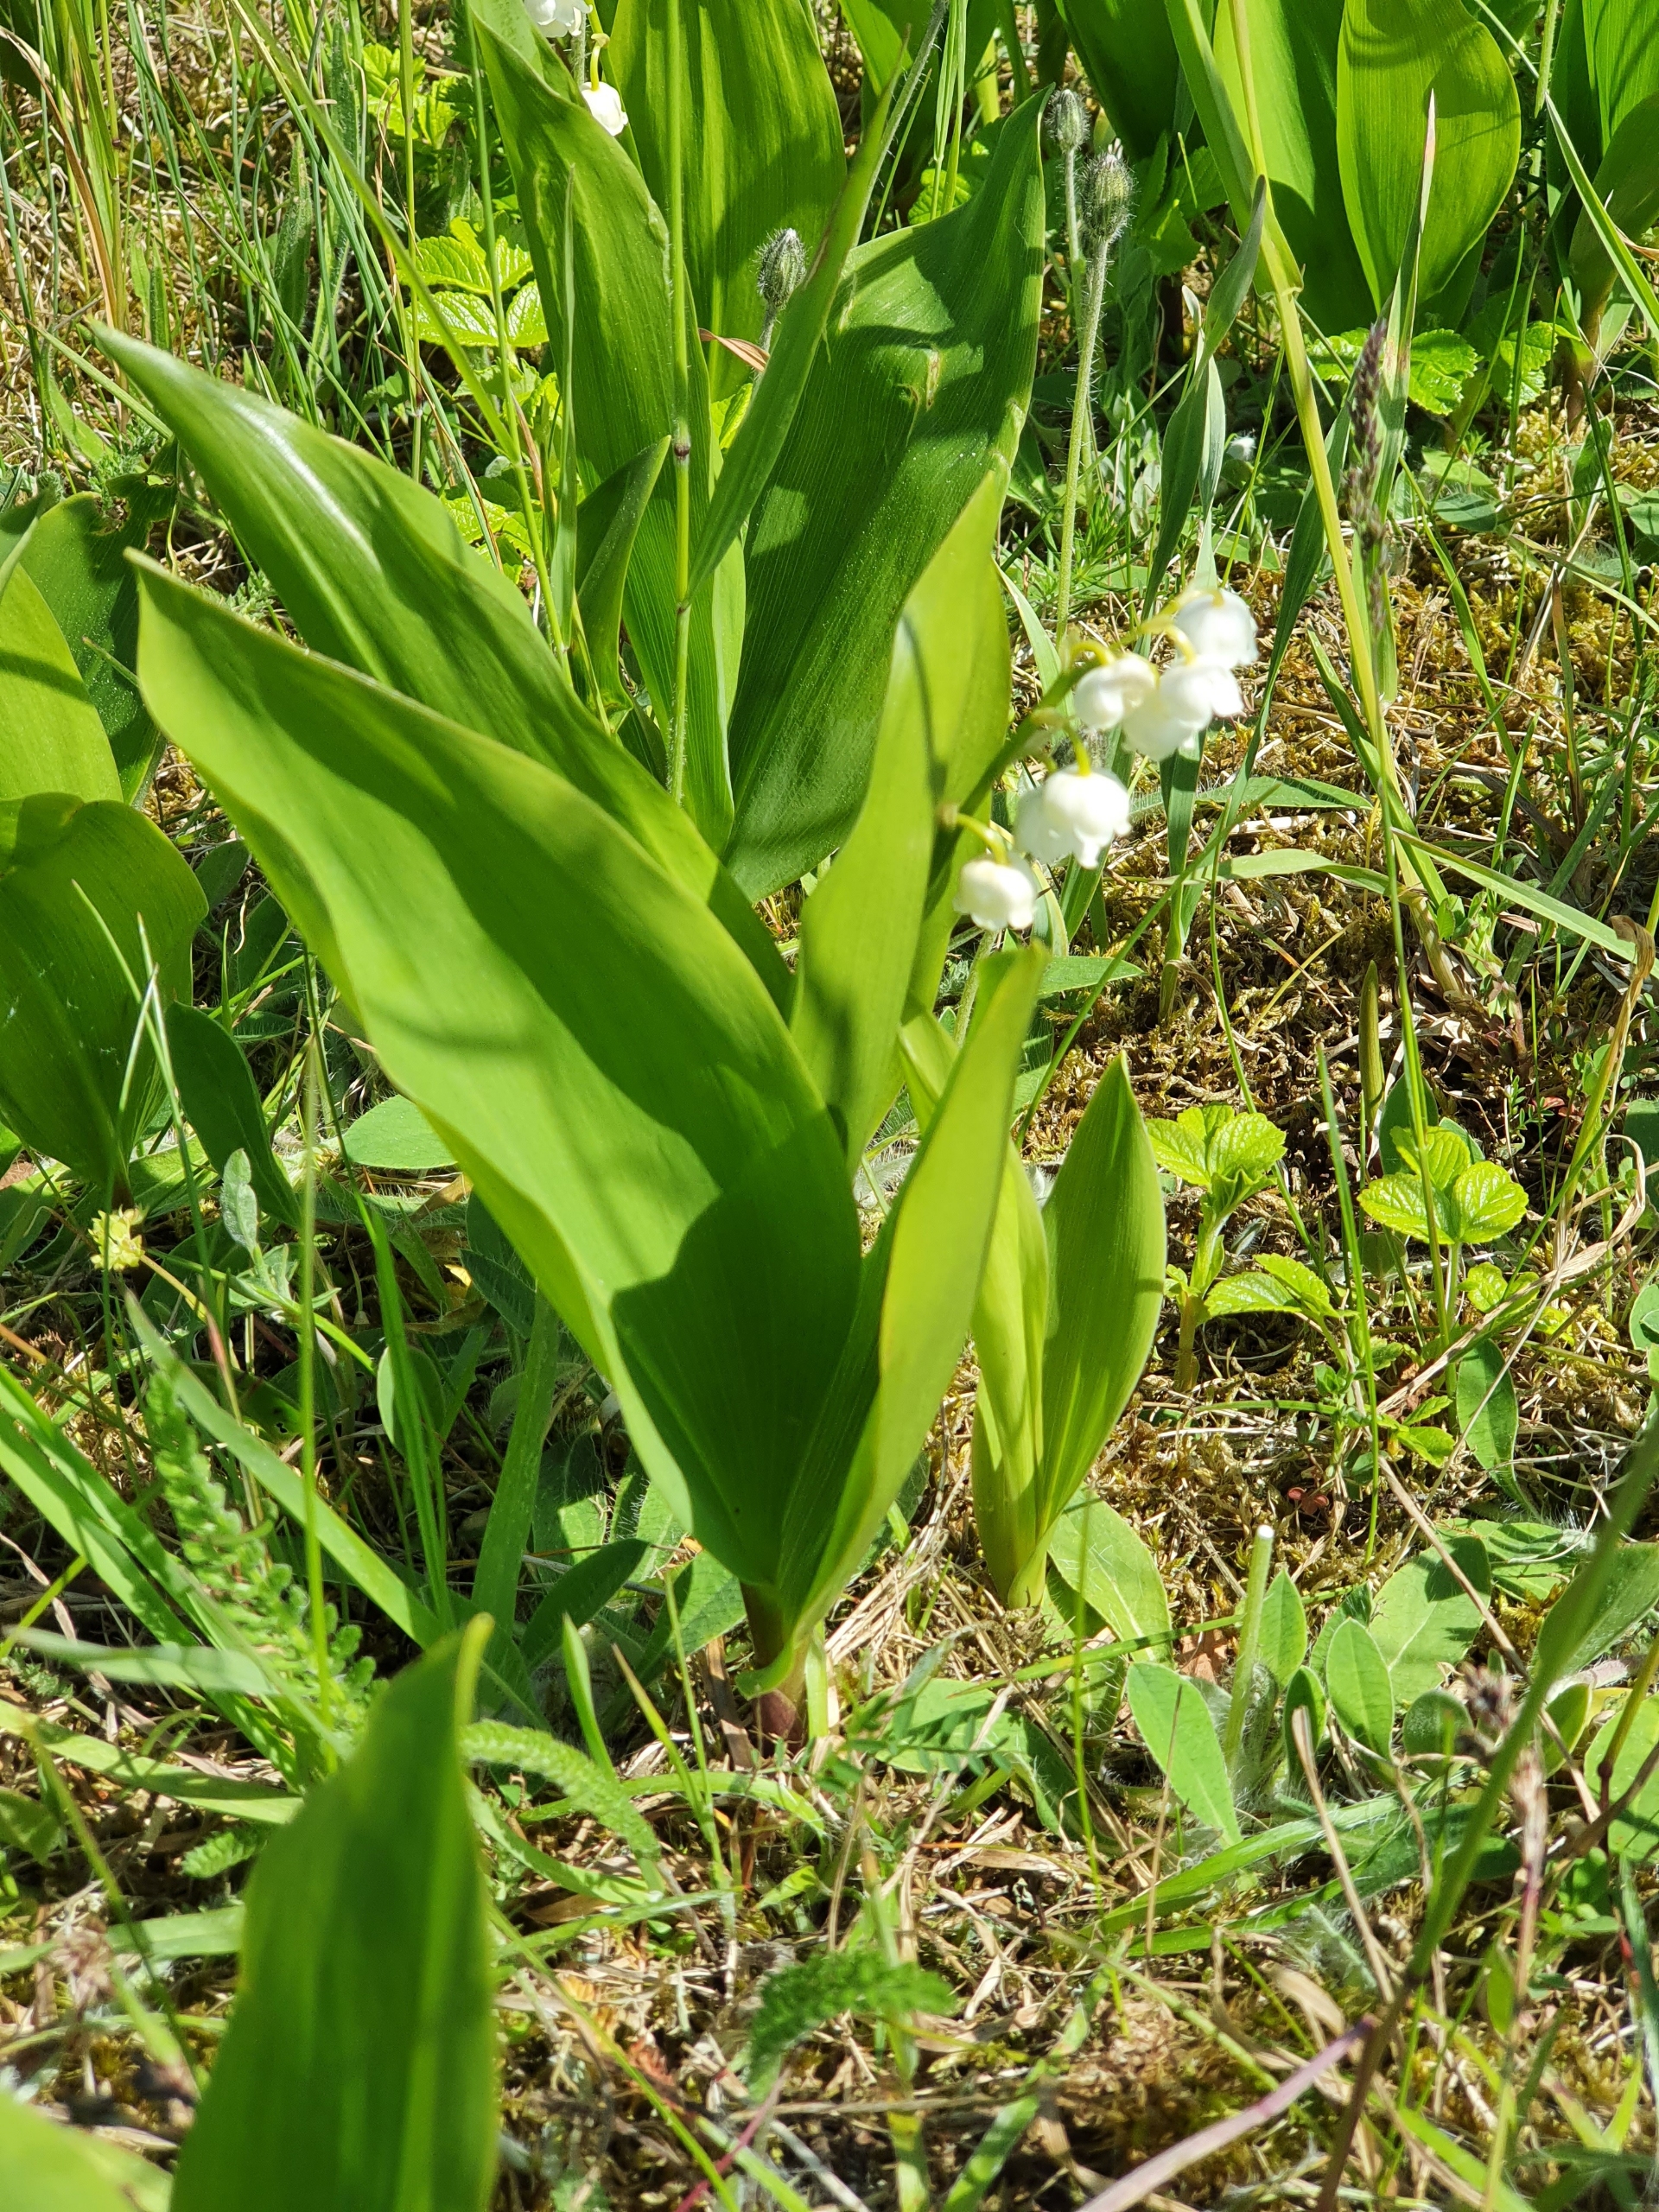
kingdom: Plantae
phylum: Tracheophyta
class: Liliopsida
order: Asparagales
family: Asparagaceae
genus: Convallaria
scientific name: Convallaria majalis
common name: Liljekonval
